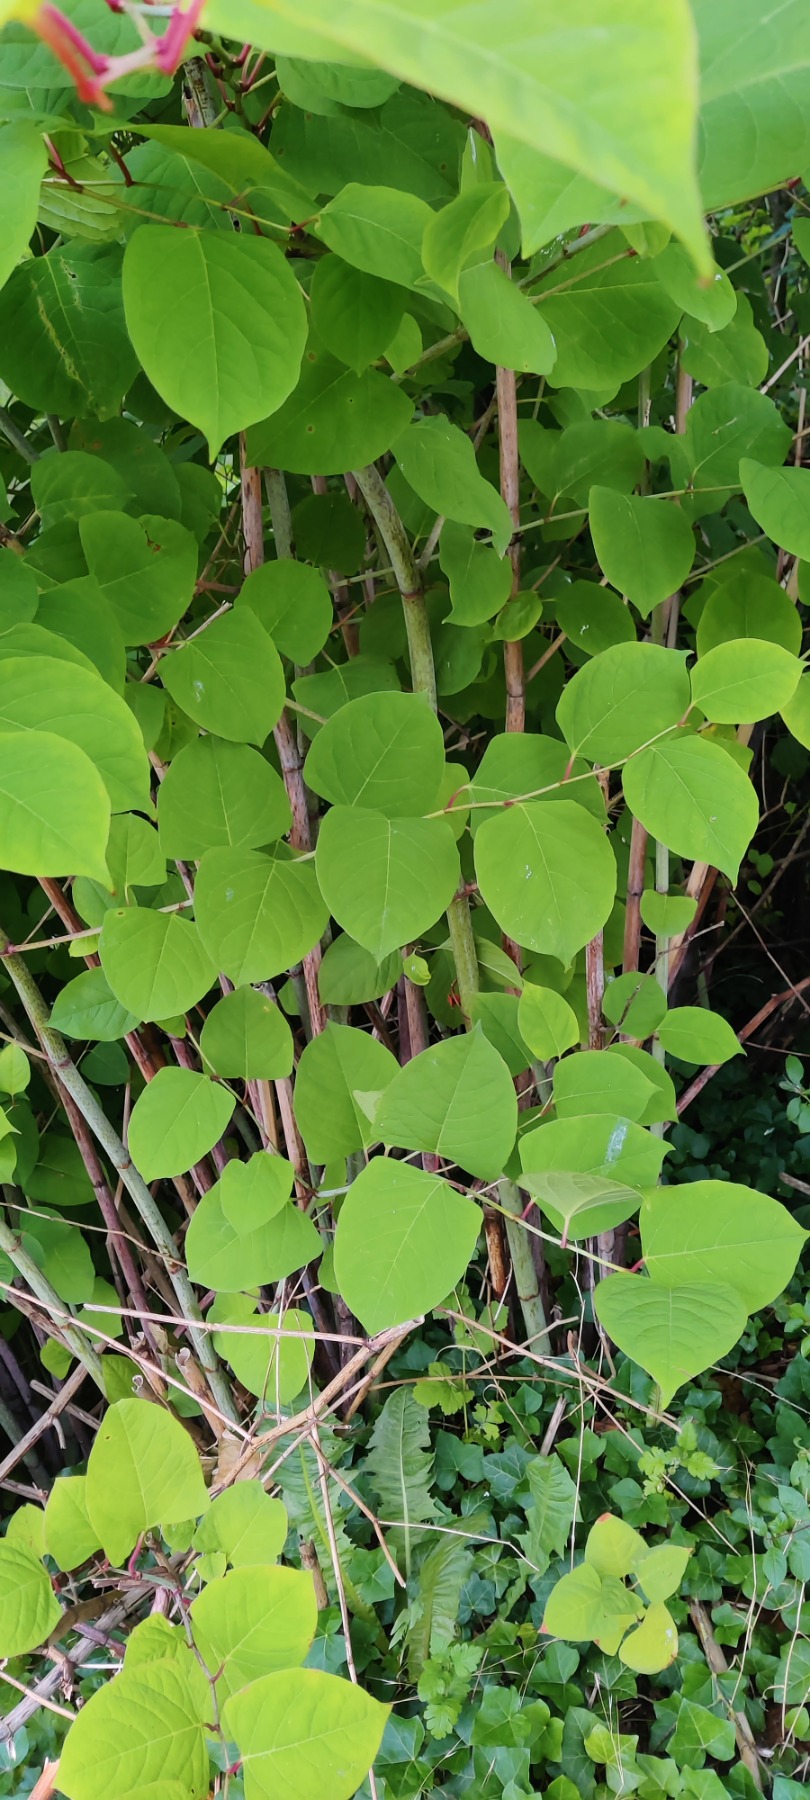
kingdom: Plantae
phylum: Tracheophyta
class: Magnoliopsida
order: Caryophyllales
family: Polygonaceae
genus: Reynoutria
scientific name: Reynoutria japonica
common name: Japan-pileurt
